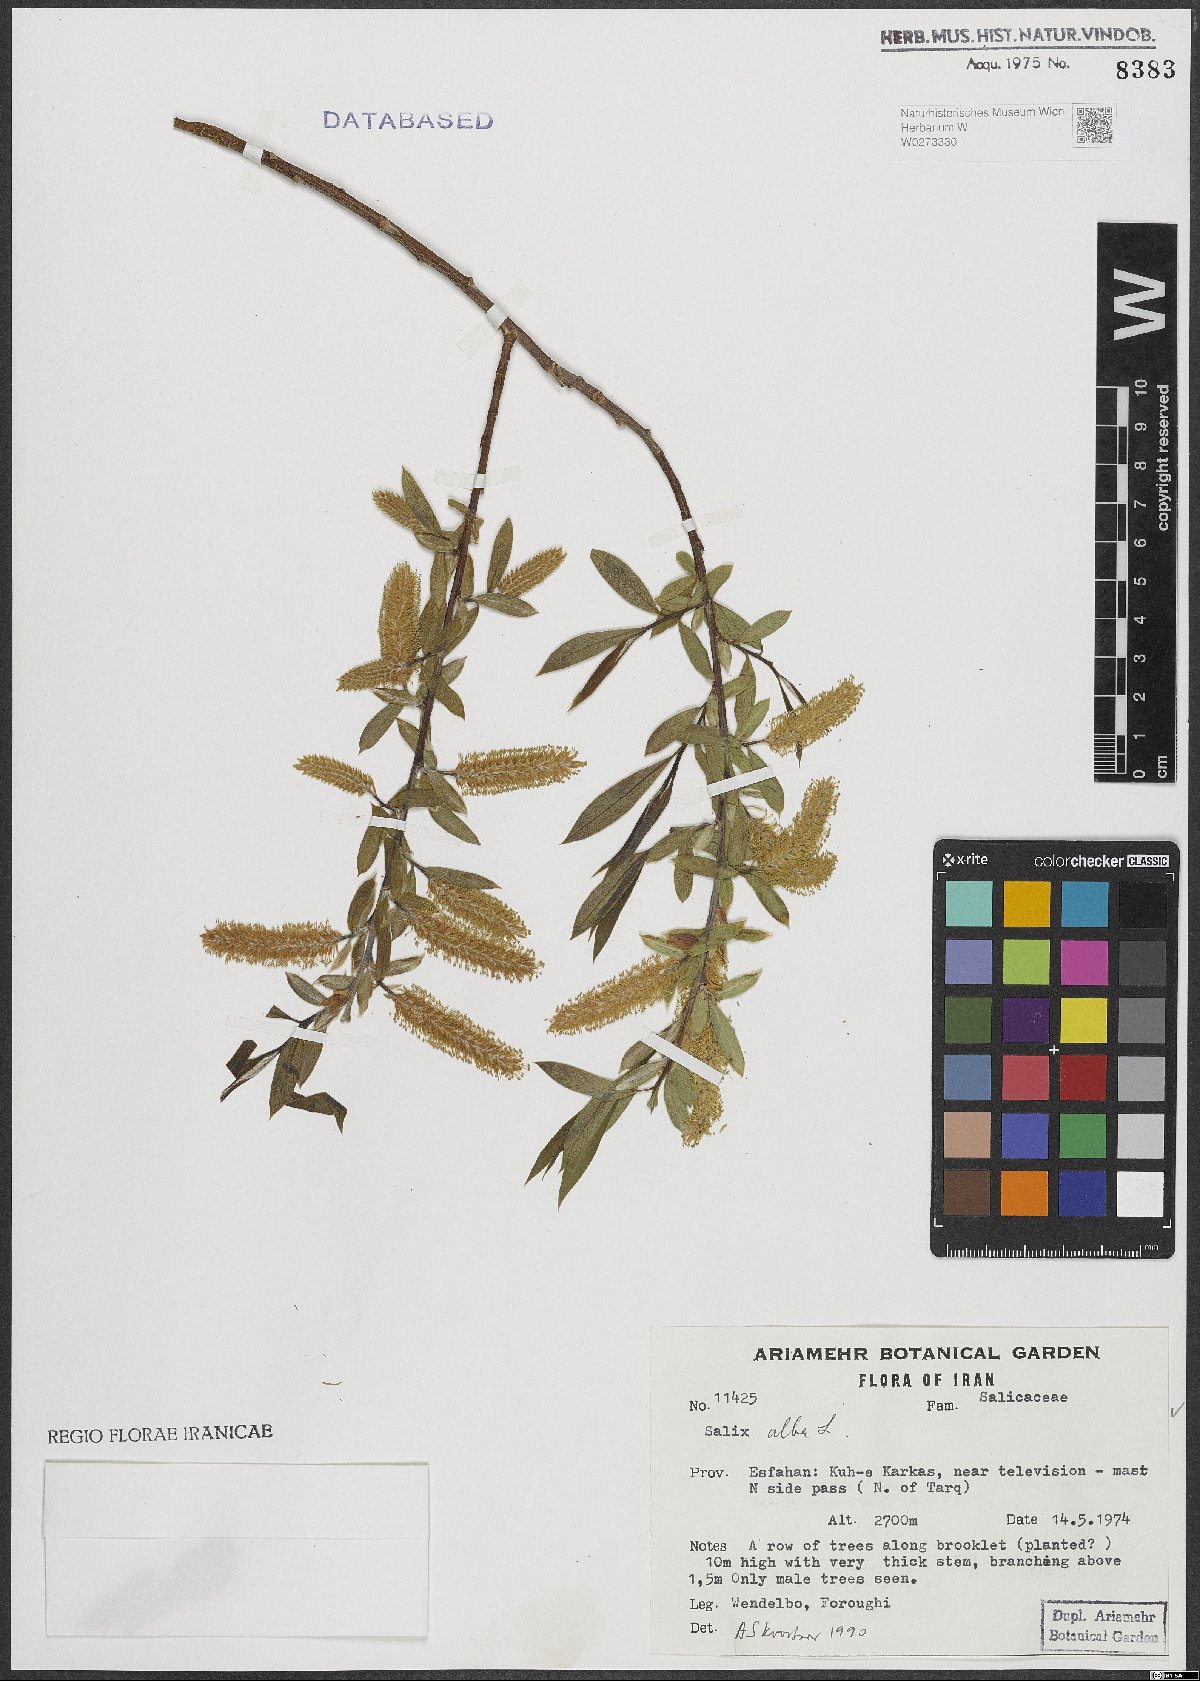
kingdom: Plantae
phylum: Tracheophyta
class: Magnoliopsida
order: Malpighiales
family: Salicaceae
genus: Salix
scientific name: Salix alba
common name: White willow
